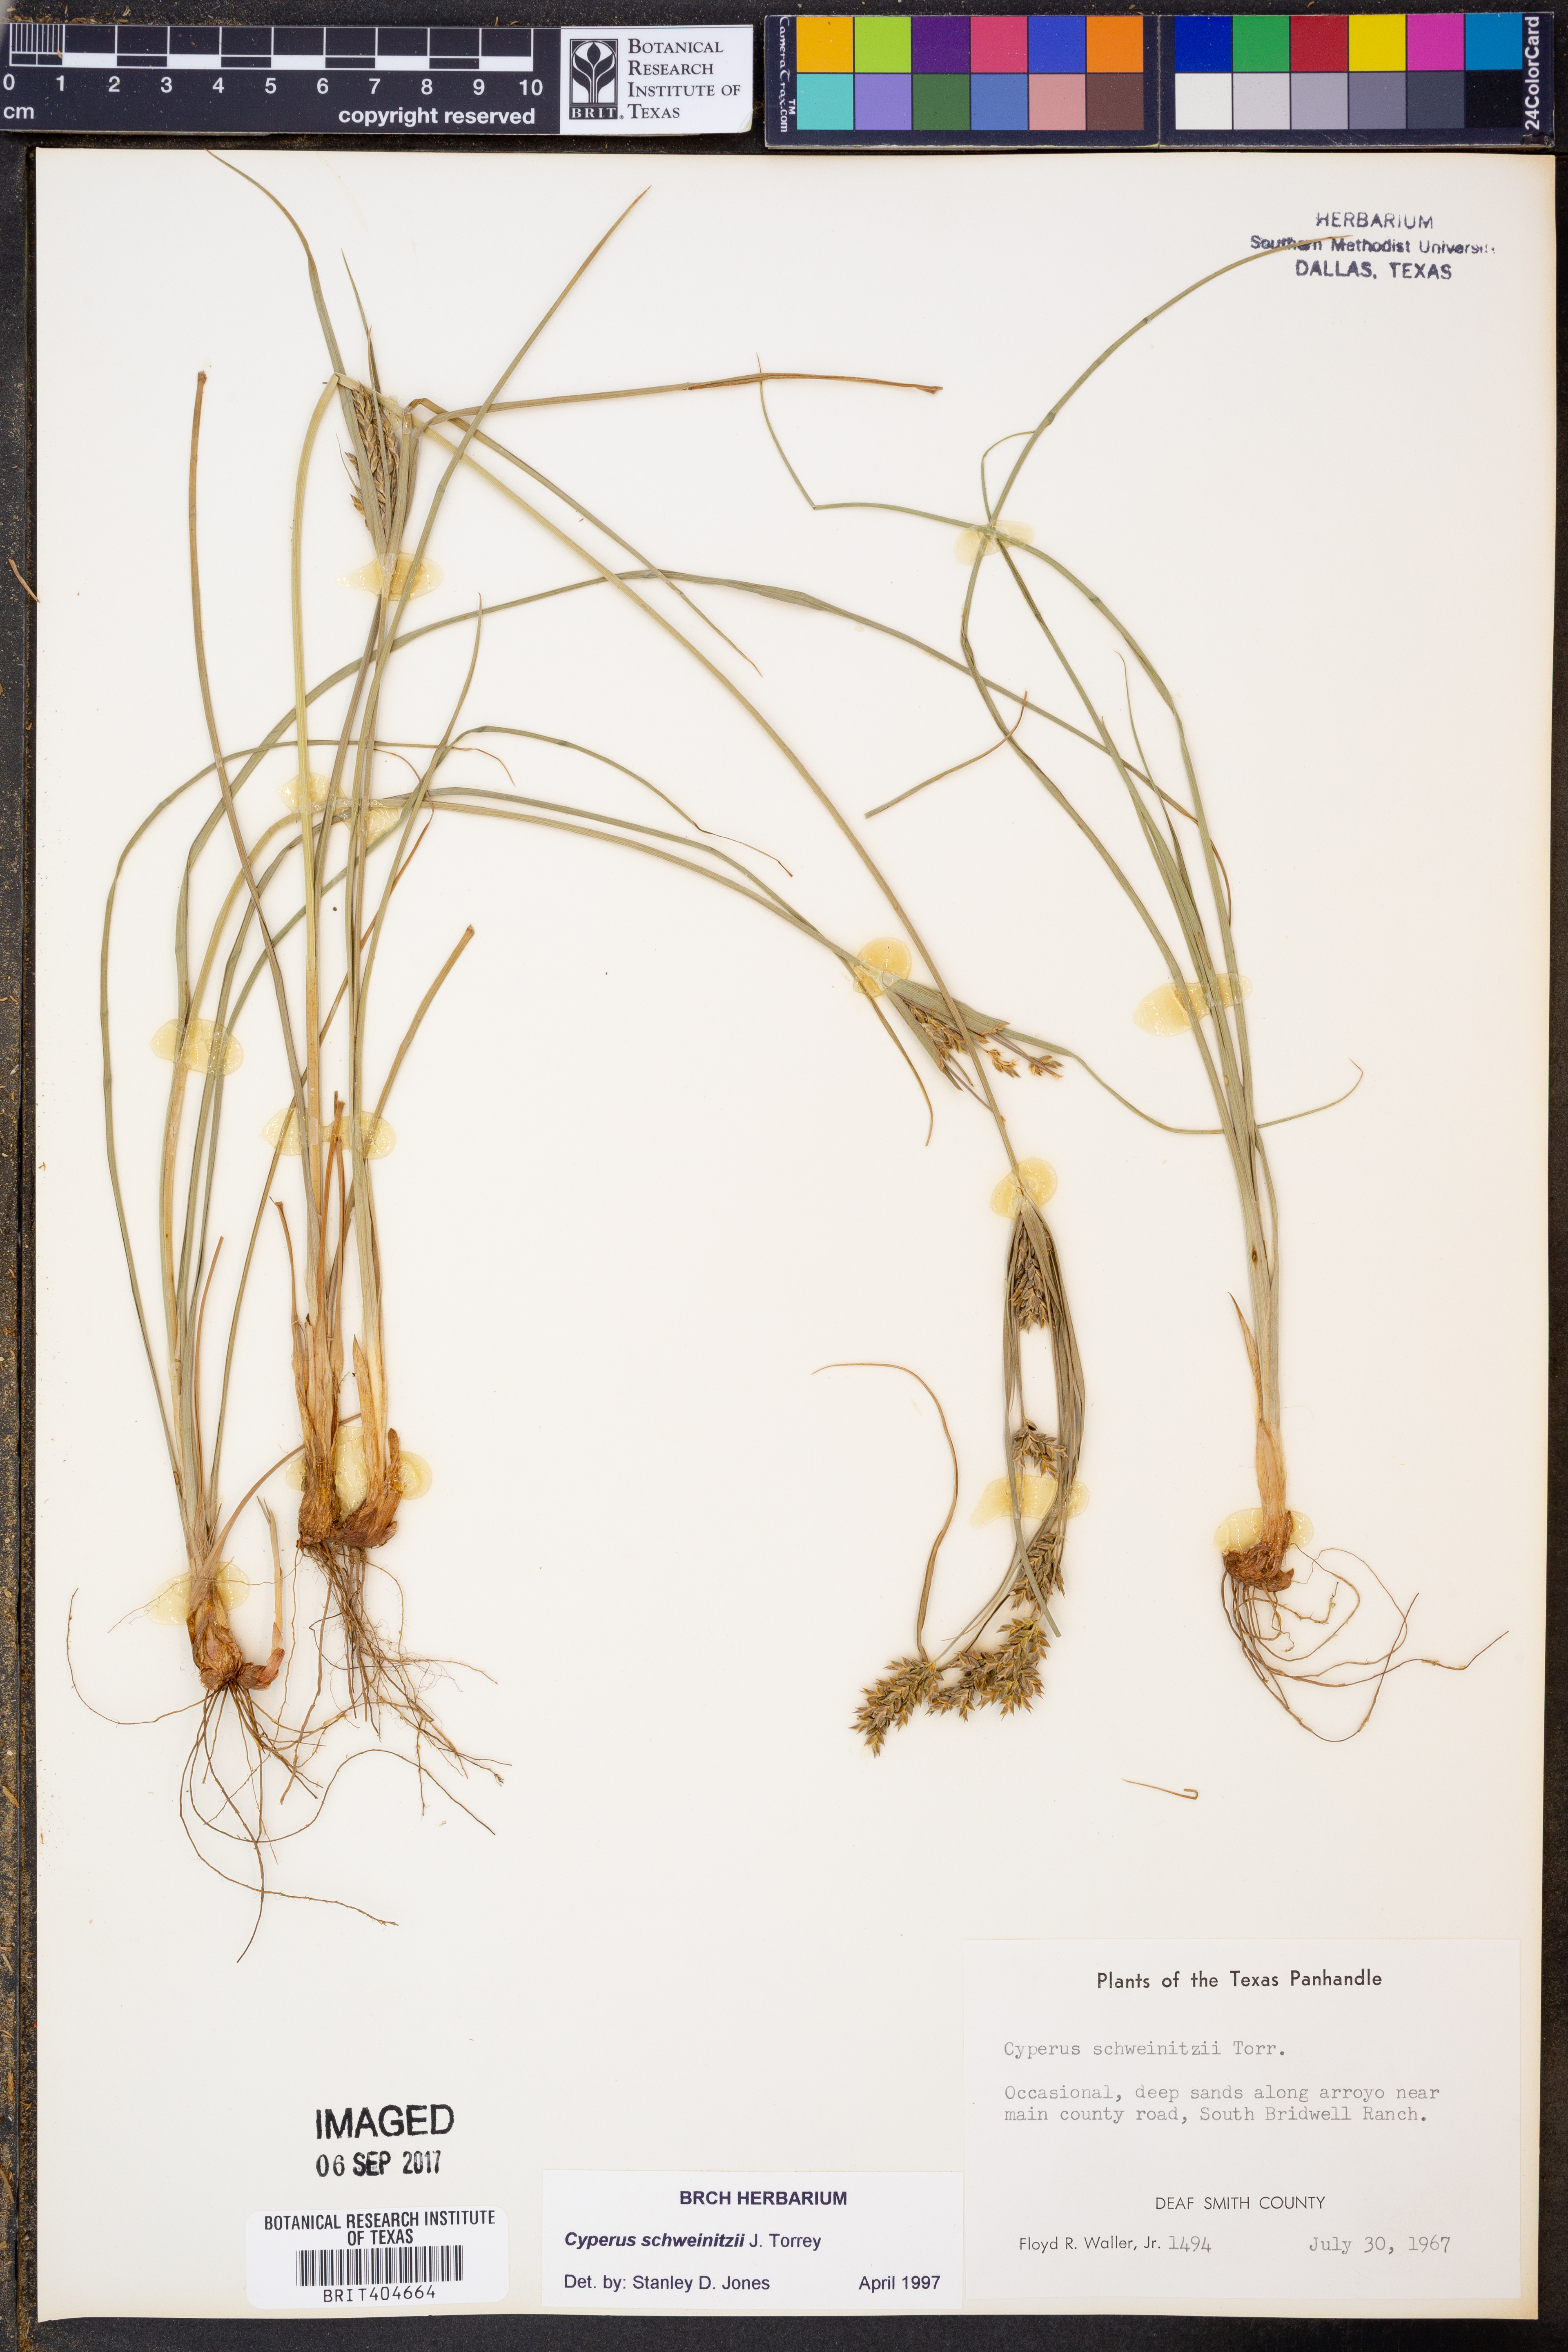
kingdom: Plantae
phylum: Tracheophyta
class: Liliopsida
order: Poales
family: Cyperaceae
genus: Cyperus
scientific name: Cyperus schweinitzii
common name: Schweinitz's cyperus
